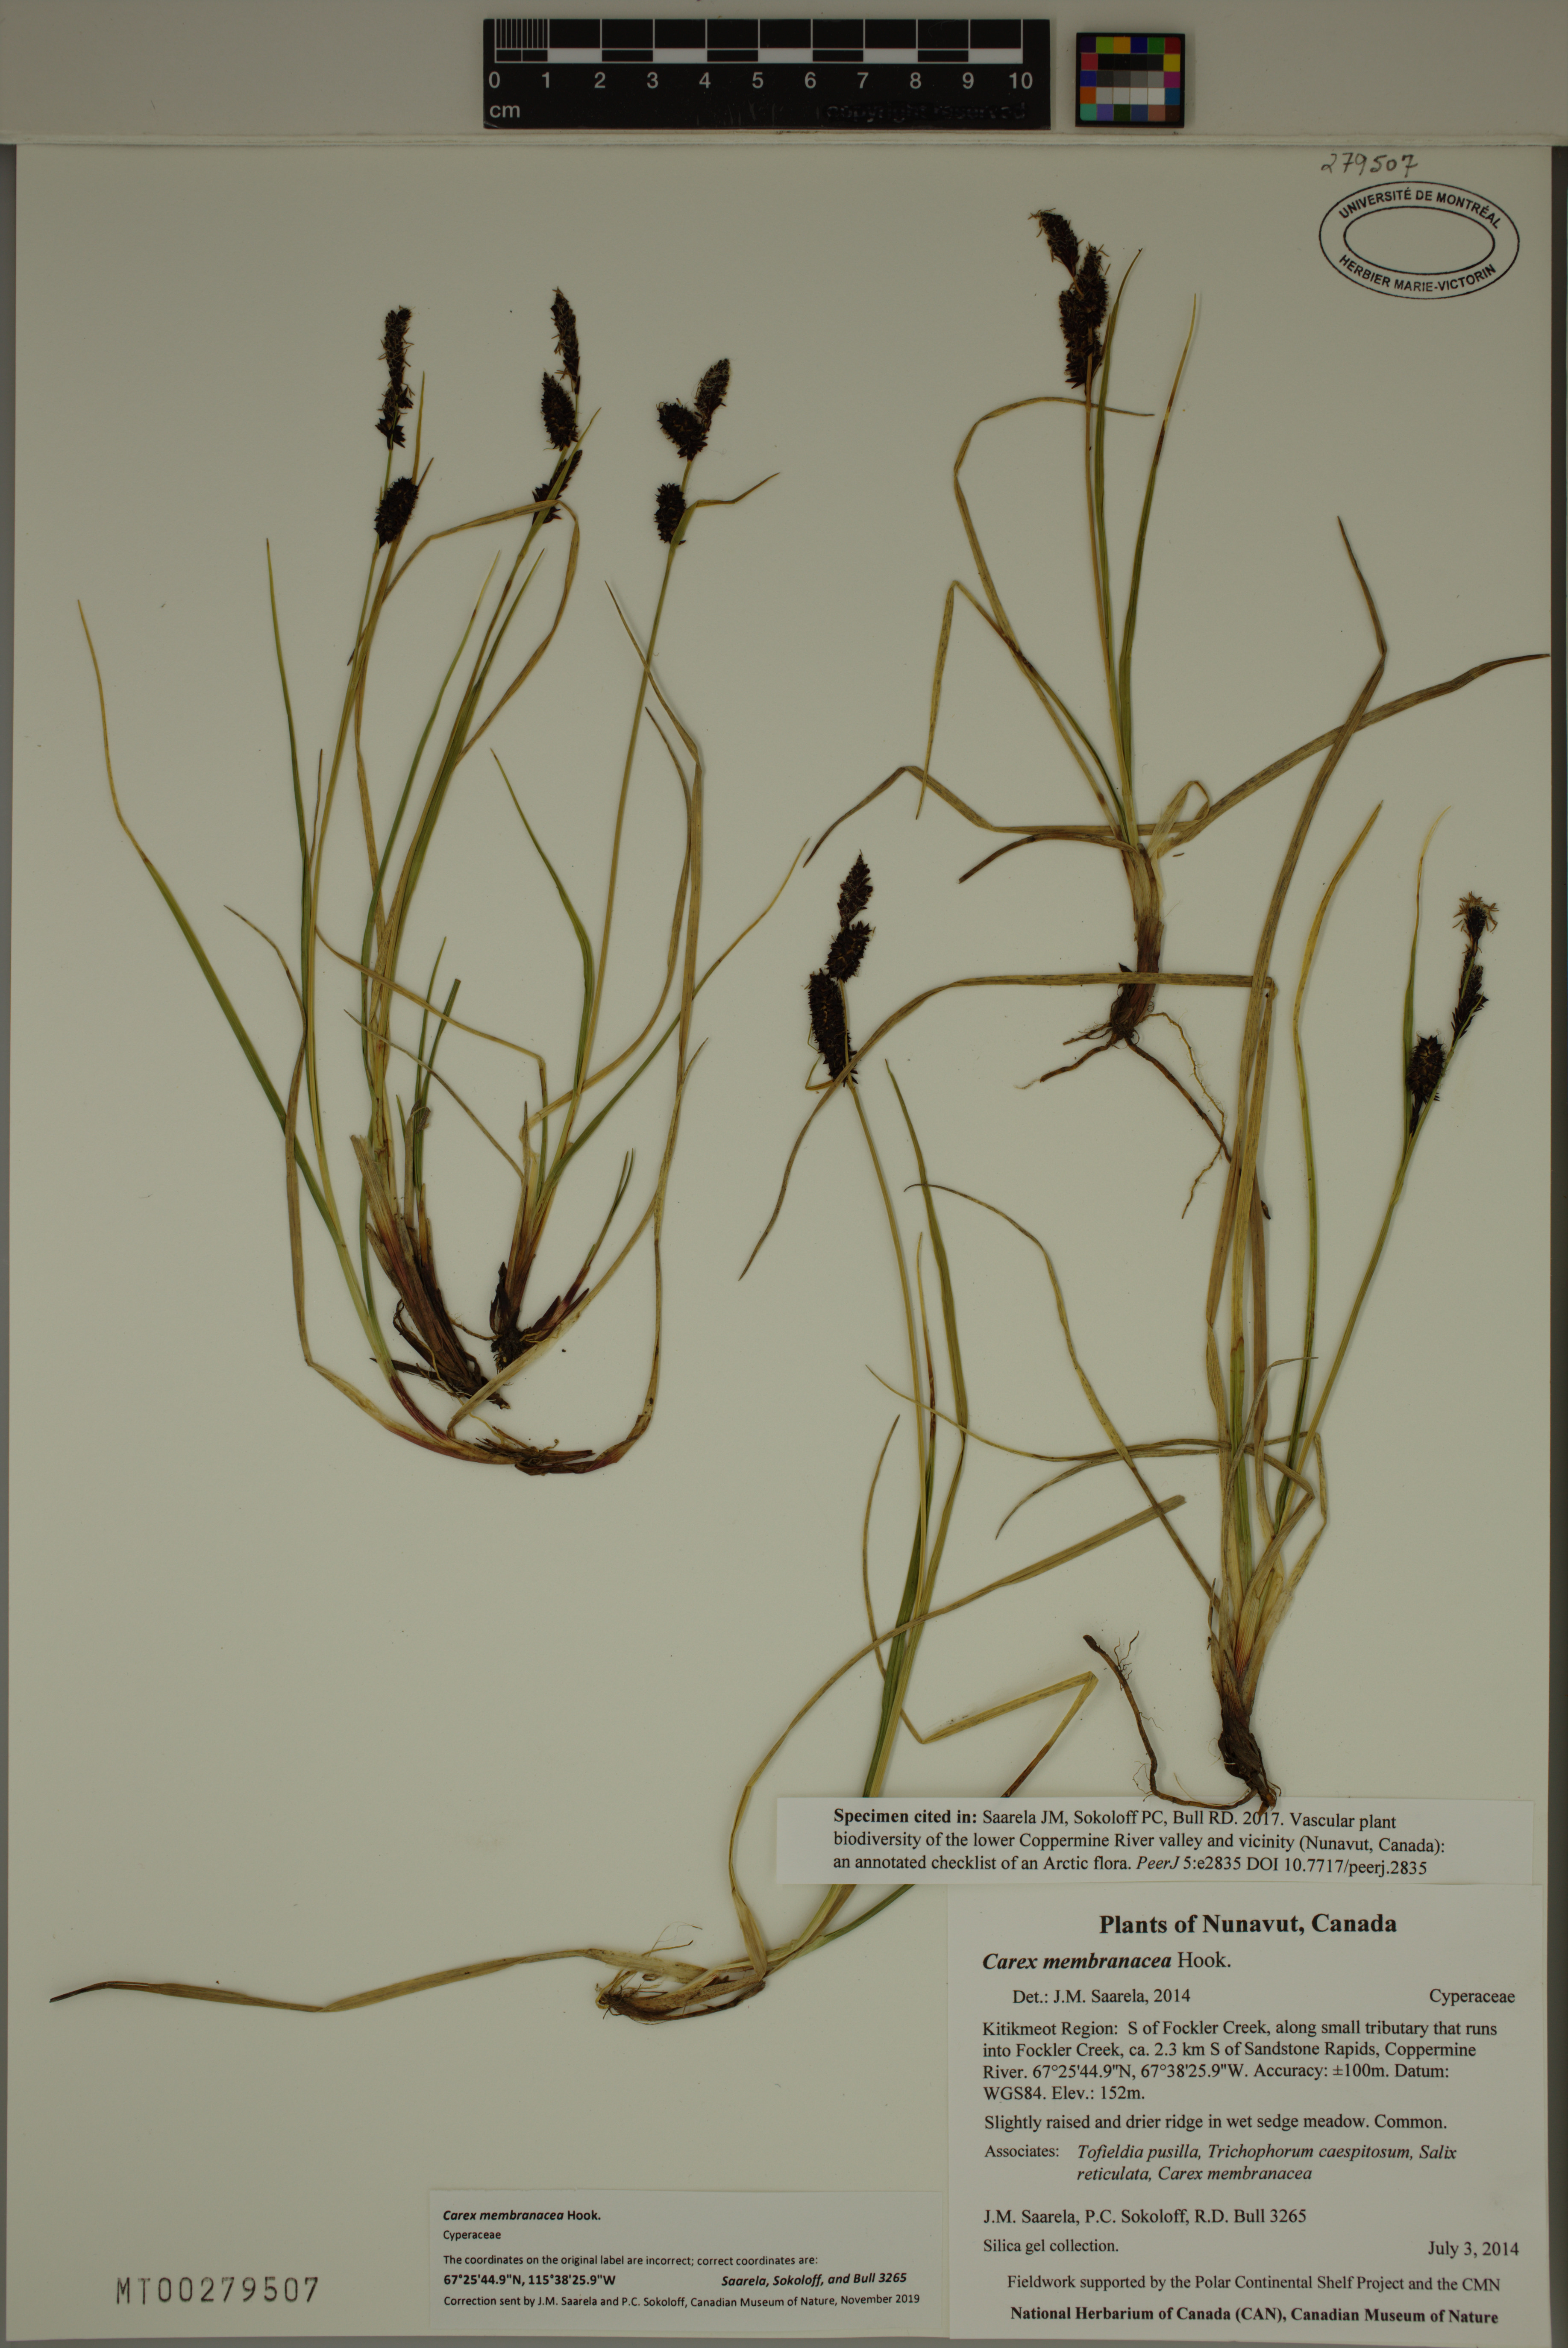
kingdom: Plantae
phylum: Tracheophyta
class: Liliopsida
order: Poales
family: Cyperaceae
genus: Carex
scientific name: Carex membranacea
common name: Fragile sedge
